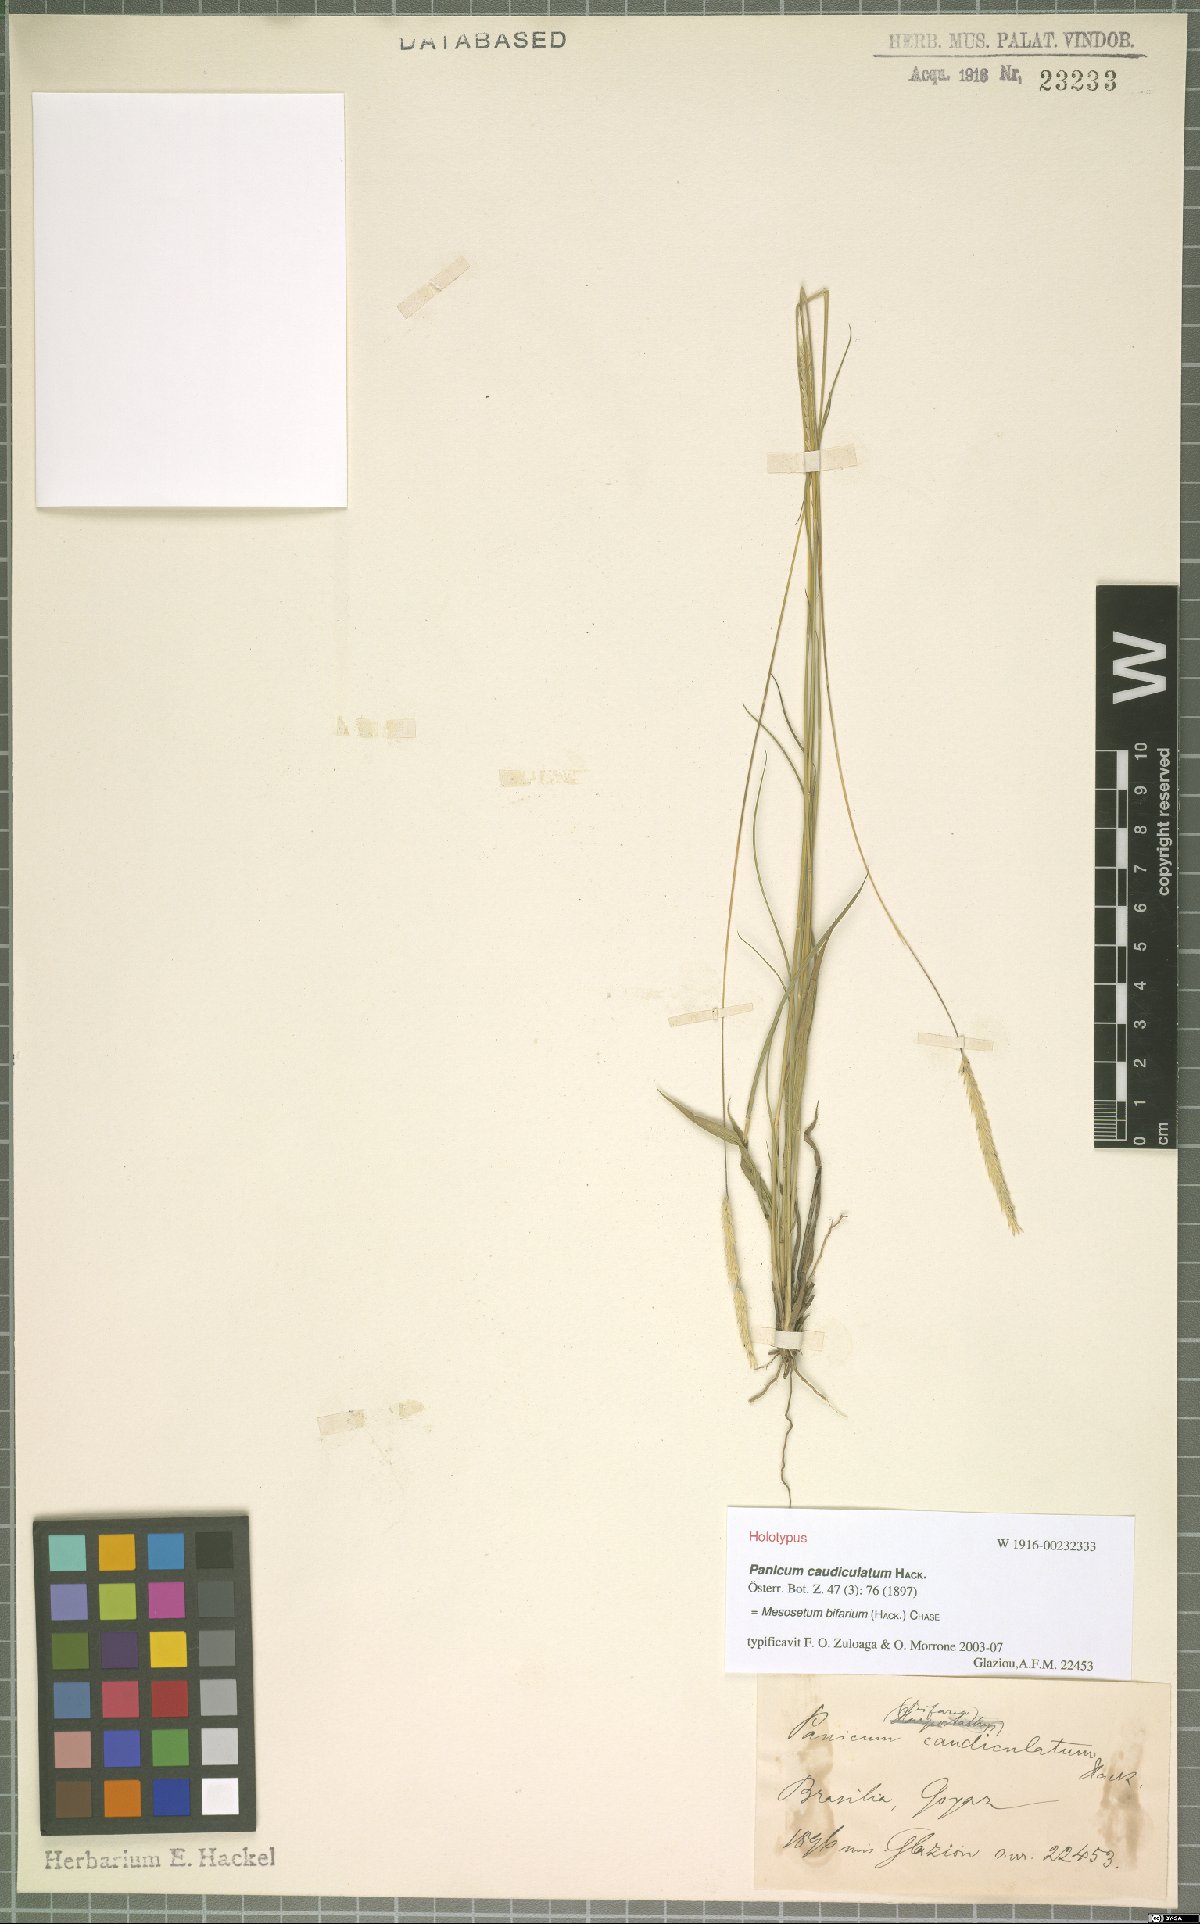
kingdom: Plantae
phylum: Tracheophyta
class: Liliopsida
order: Poales
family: Poaceae
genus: Mesosetum
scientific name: Mesosetum bifarium
